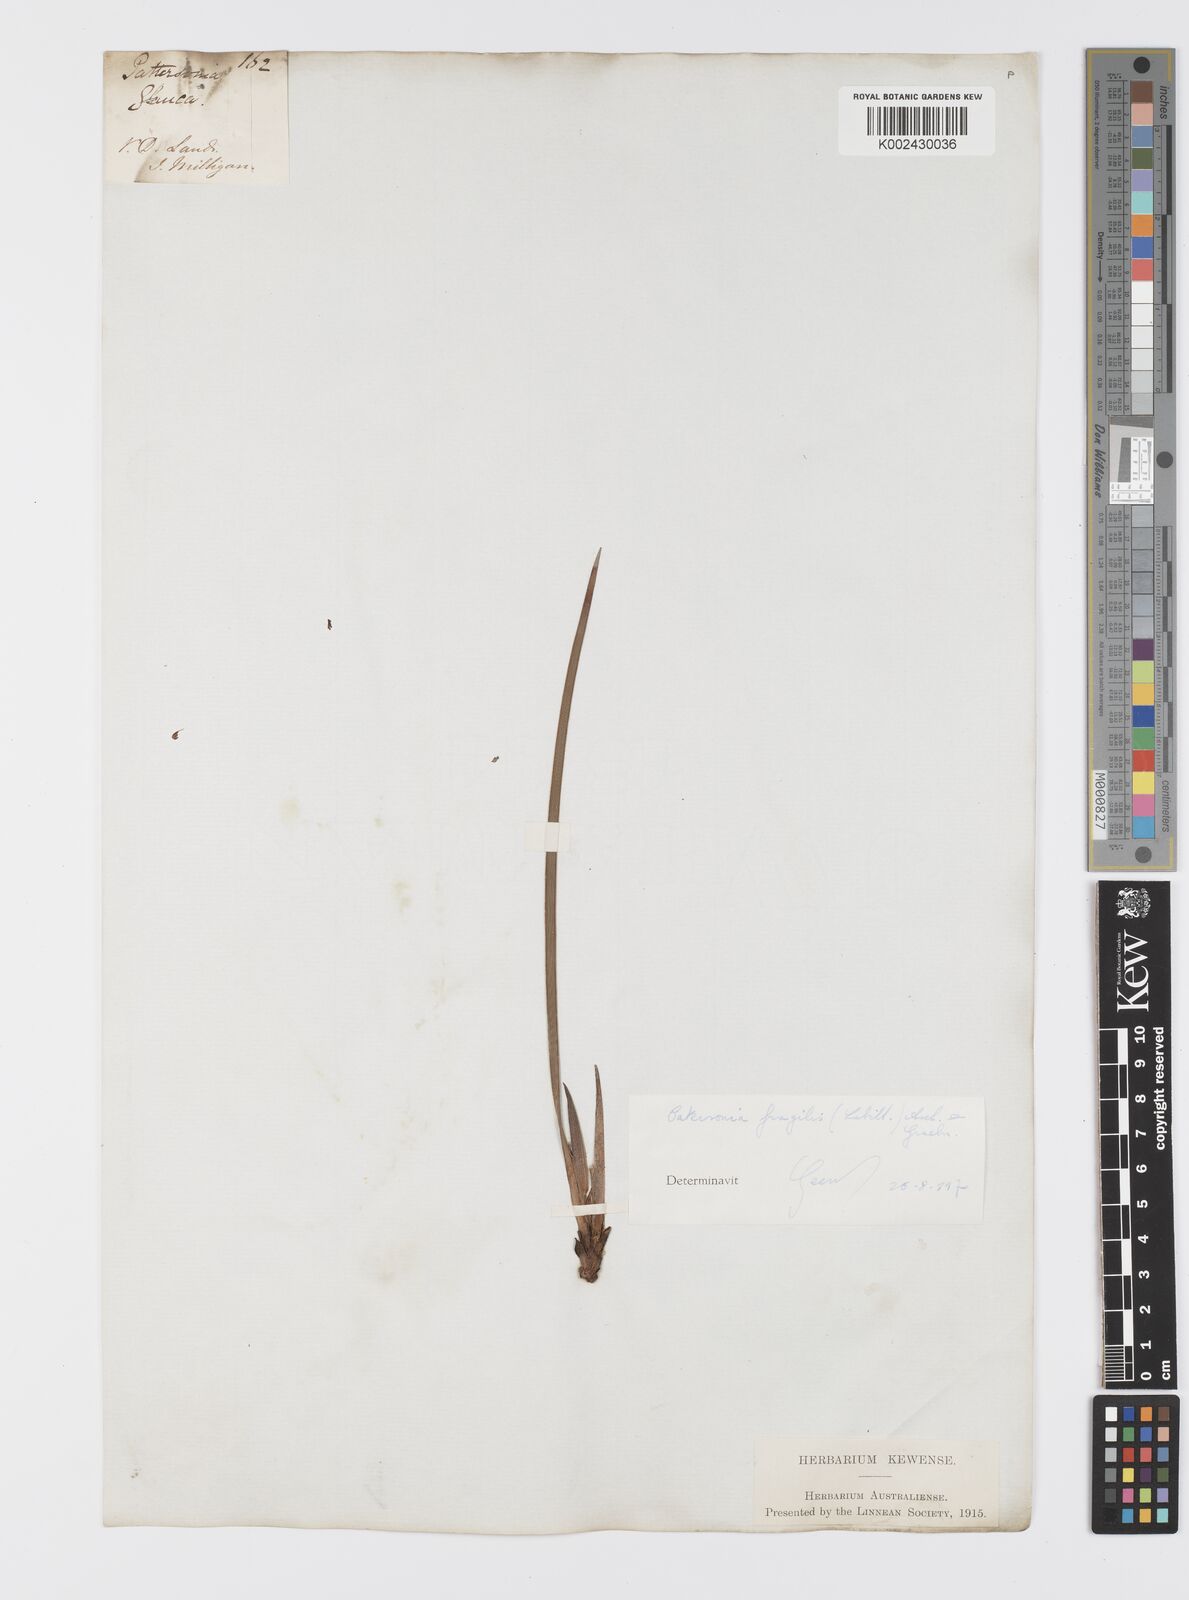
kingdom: Plantae
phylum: Tracheophyta
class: Liliopsida
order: Asparagales
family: Iridaceae
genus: Patersonia
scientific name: Patersonia fragilis
